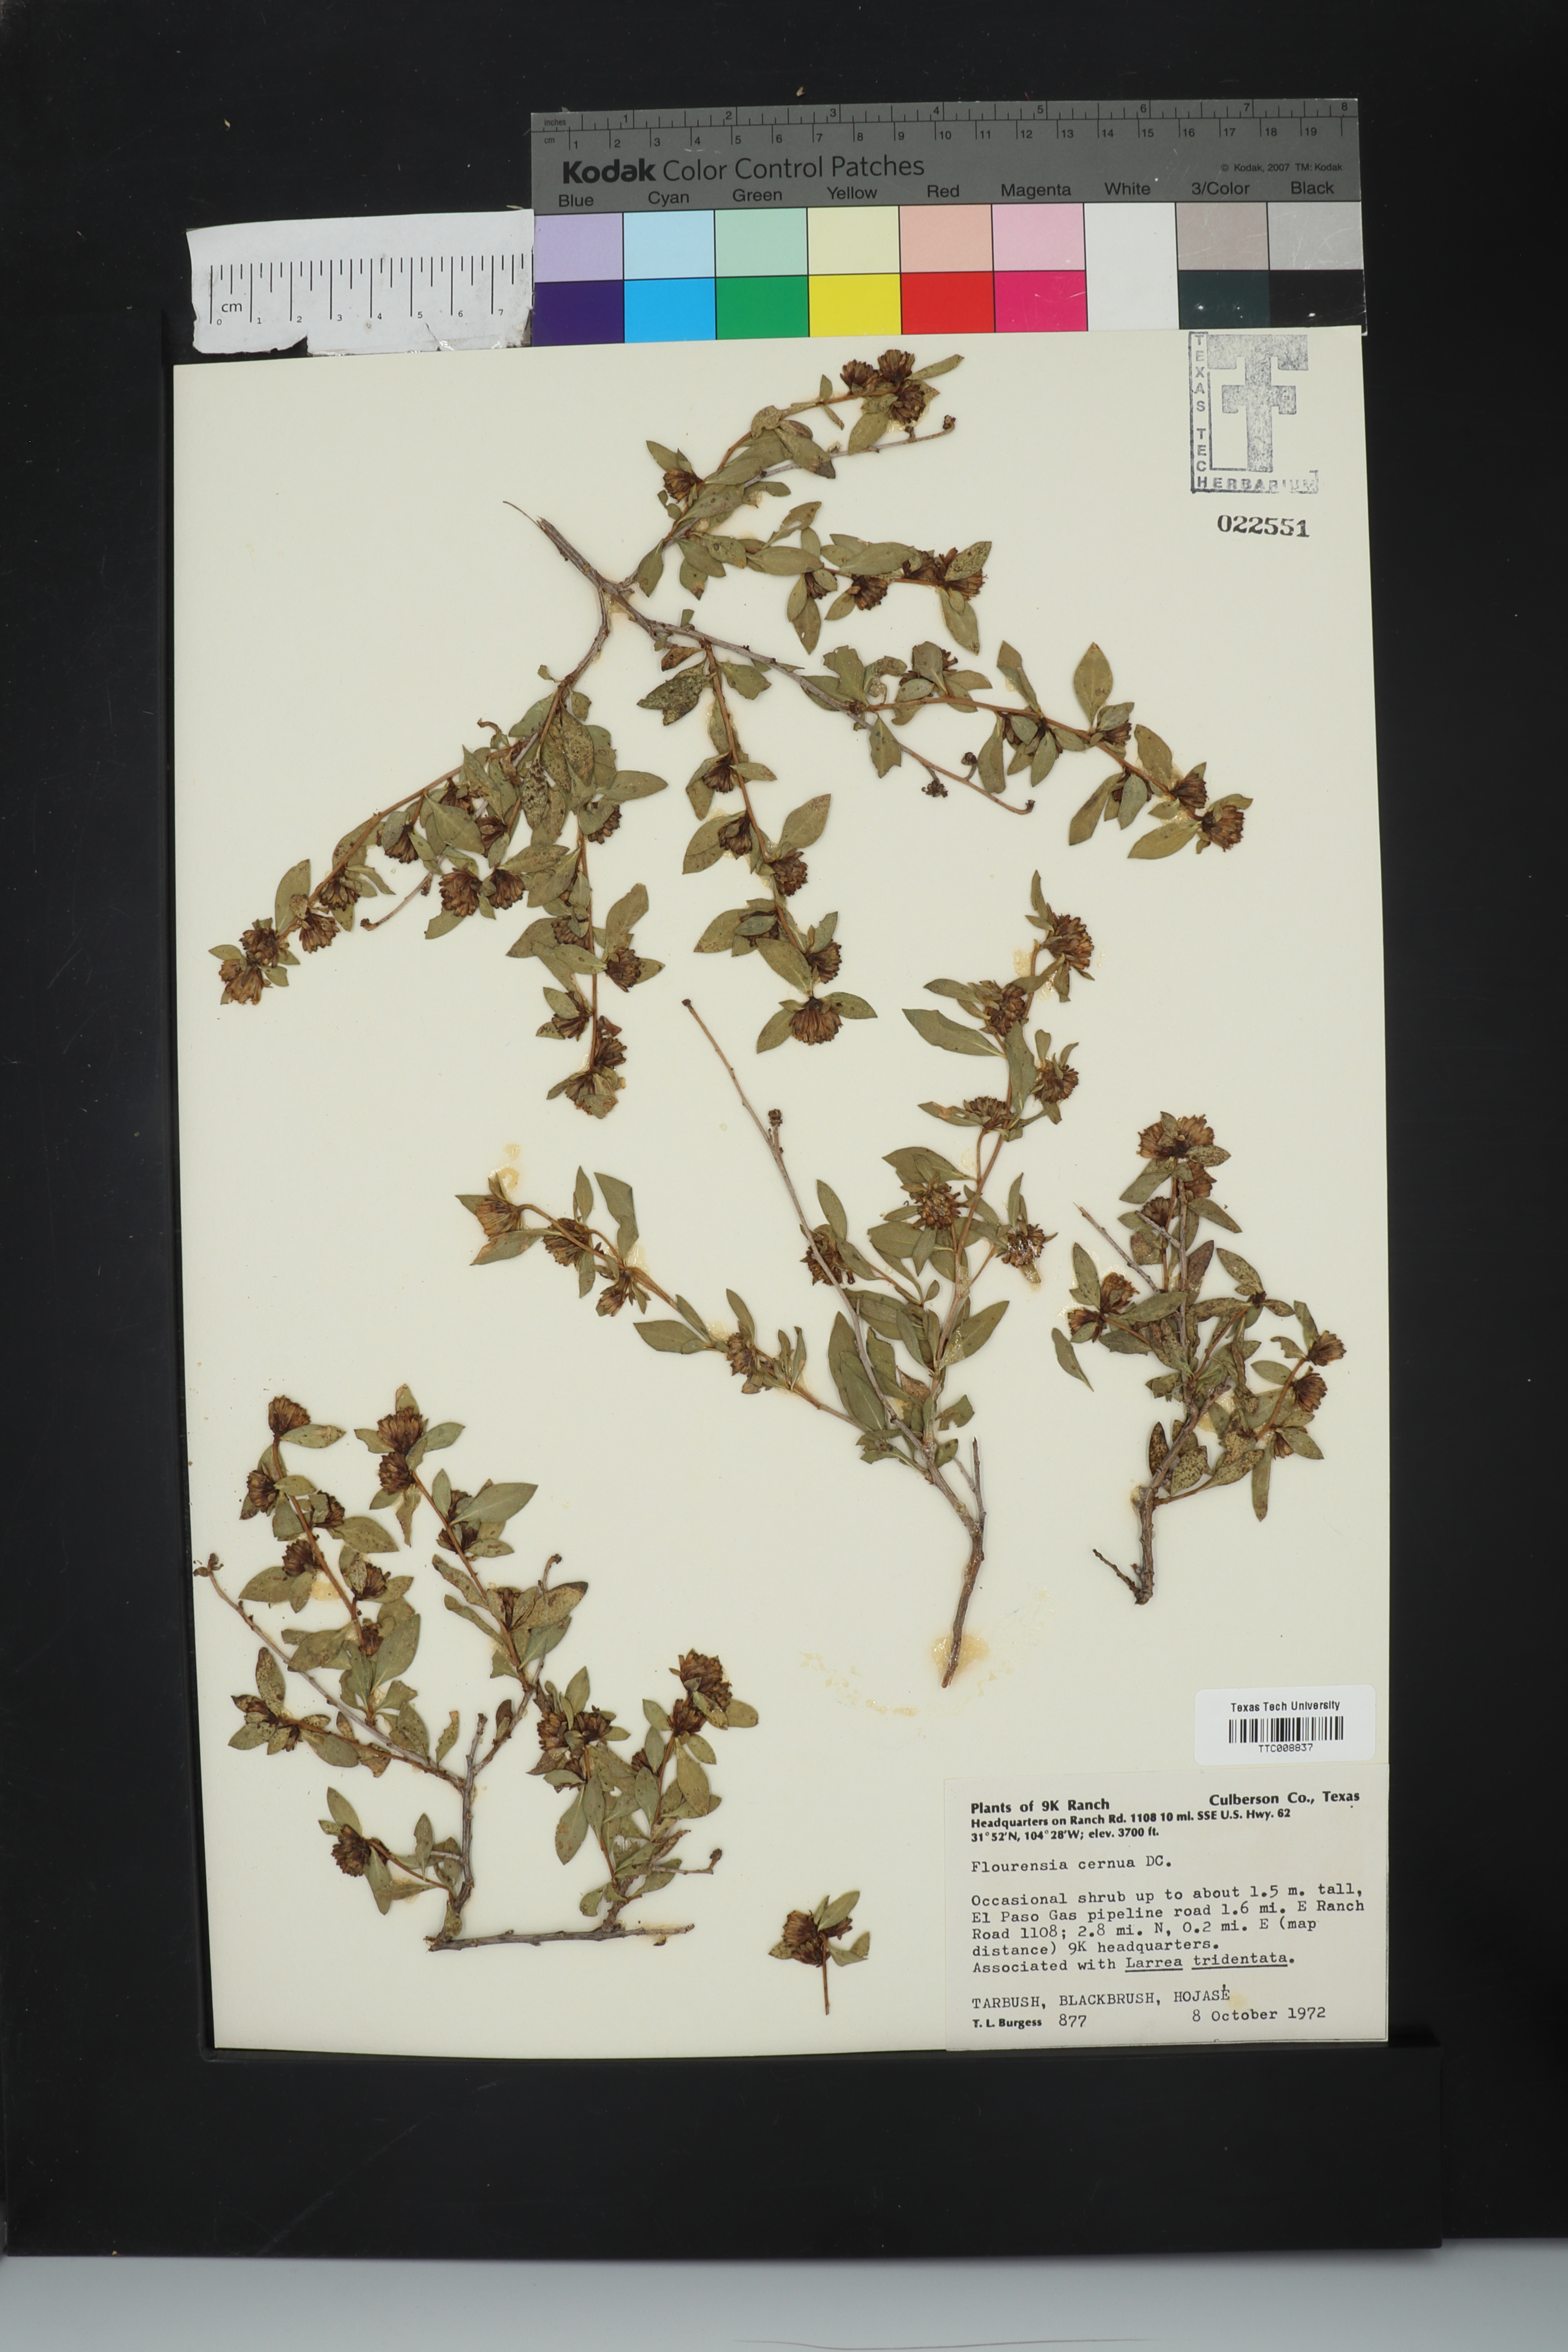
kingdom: Plantae
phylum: Tracheophyta
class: Magnoliopsida
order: Asterales
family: Asteraceae
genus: Flourensia
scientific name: Flourensia cernua
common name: Varnishbush
